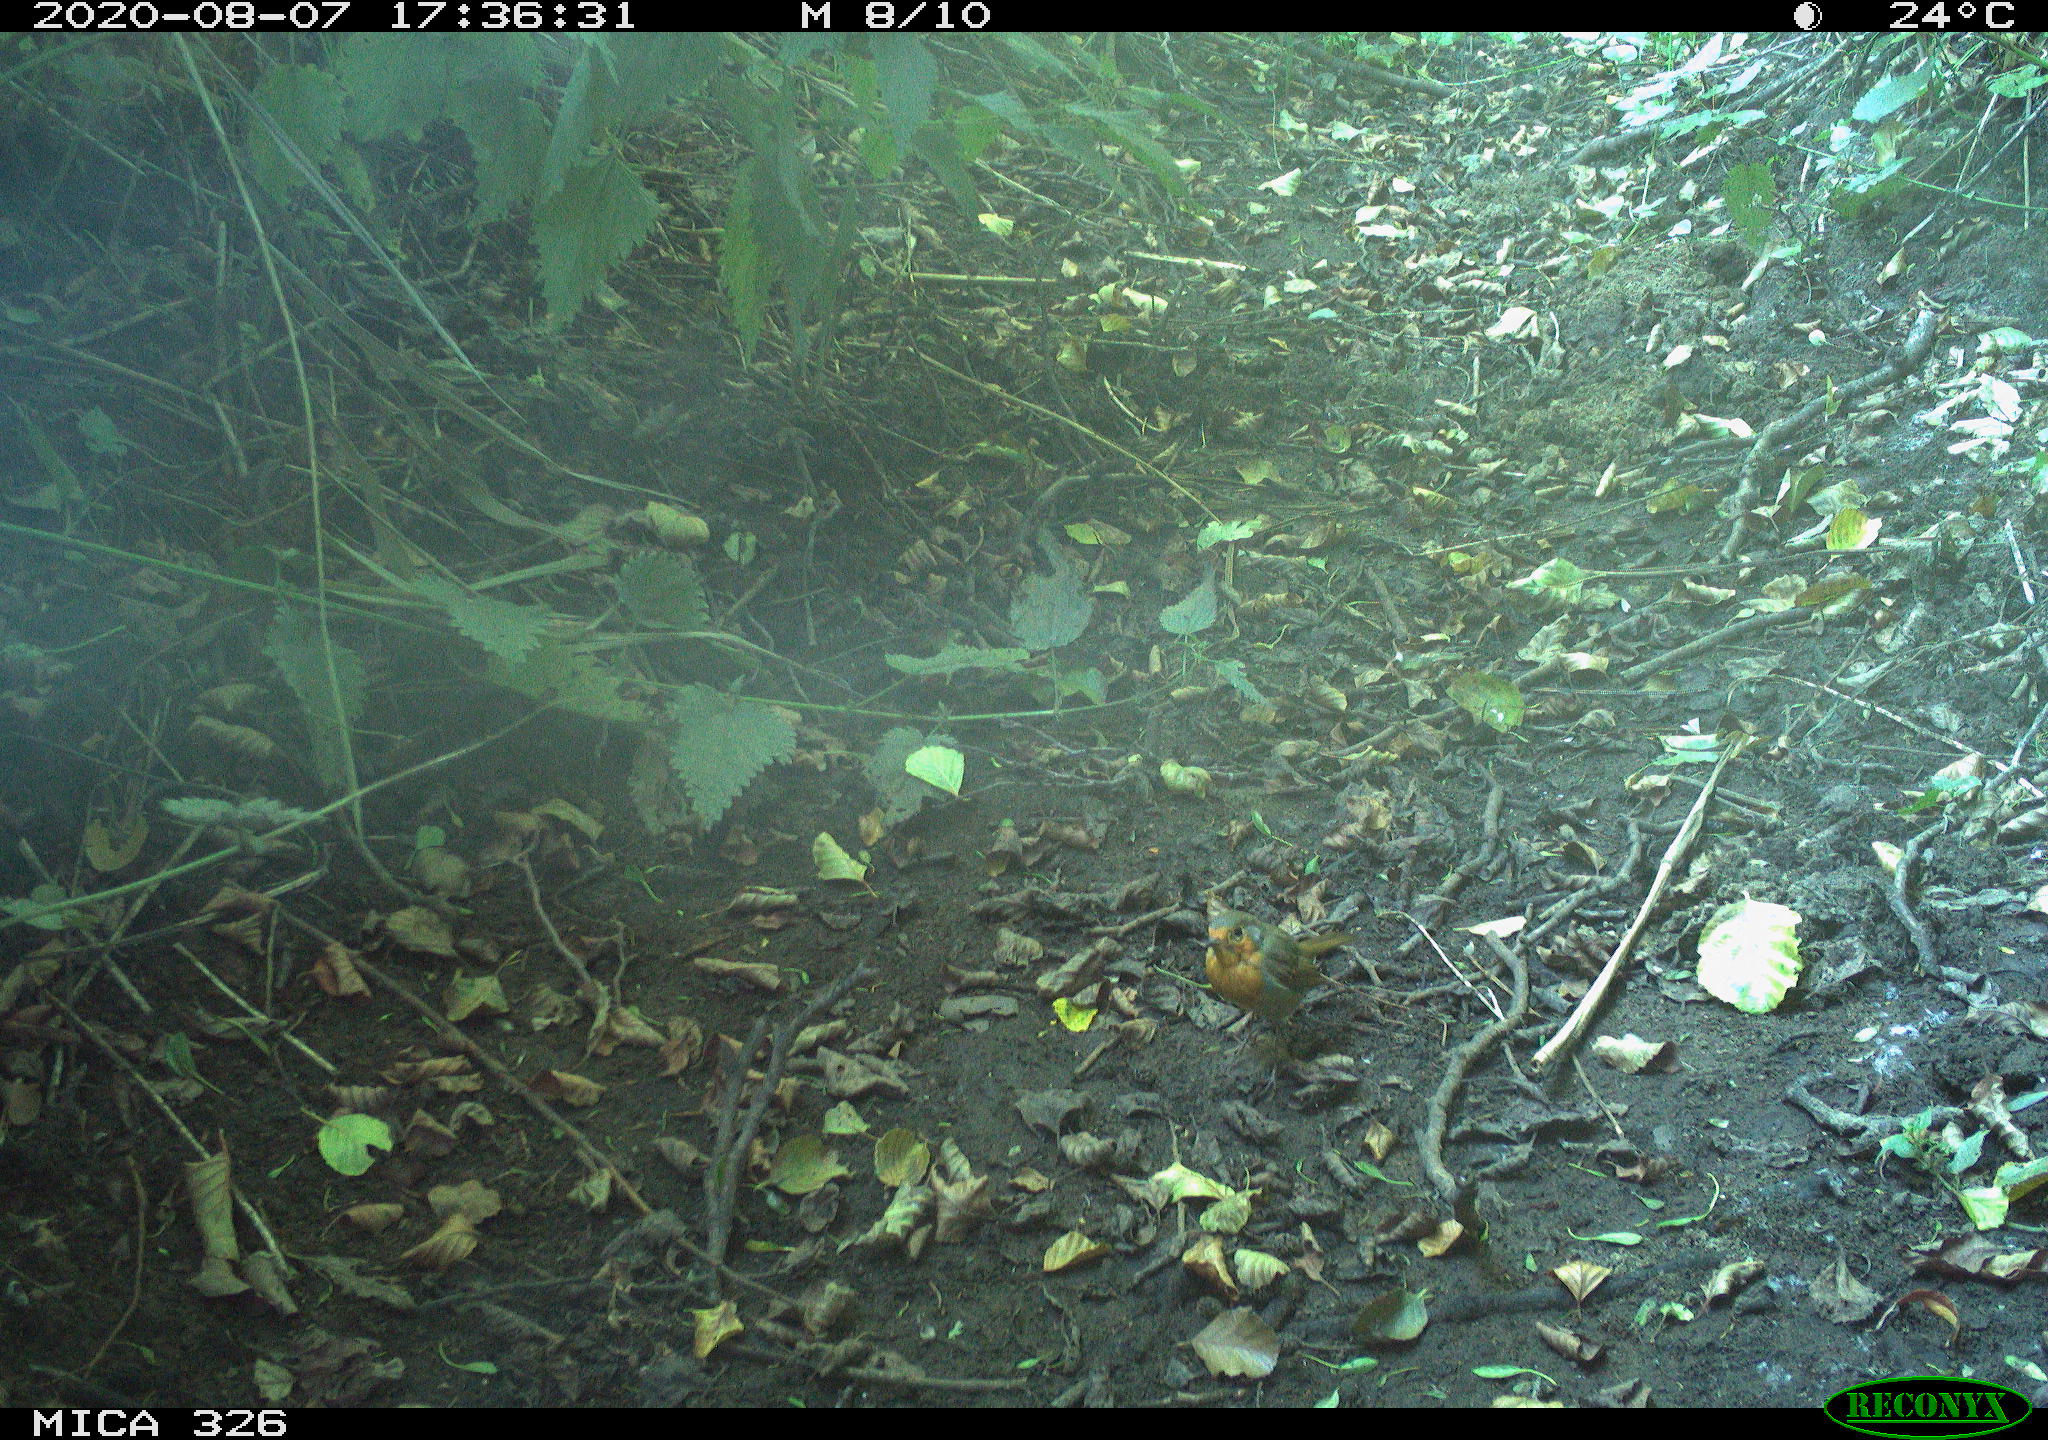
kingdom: Animalia
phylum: Chordata
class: Aves
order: Passeriformes
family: Muscicapidae
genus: Erithacus
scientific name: Erithacus rubecula
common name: European robin
